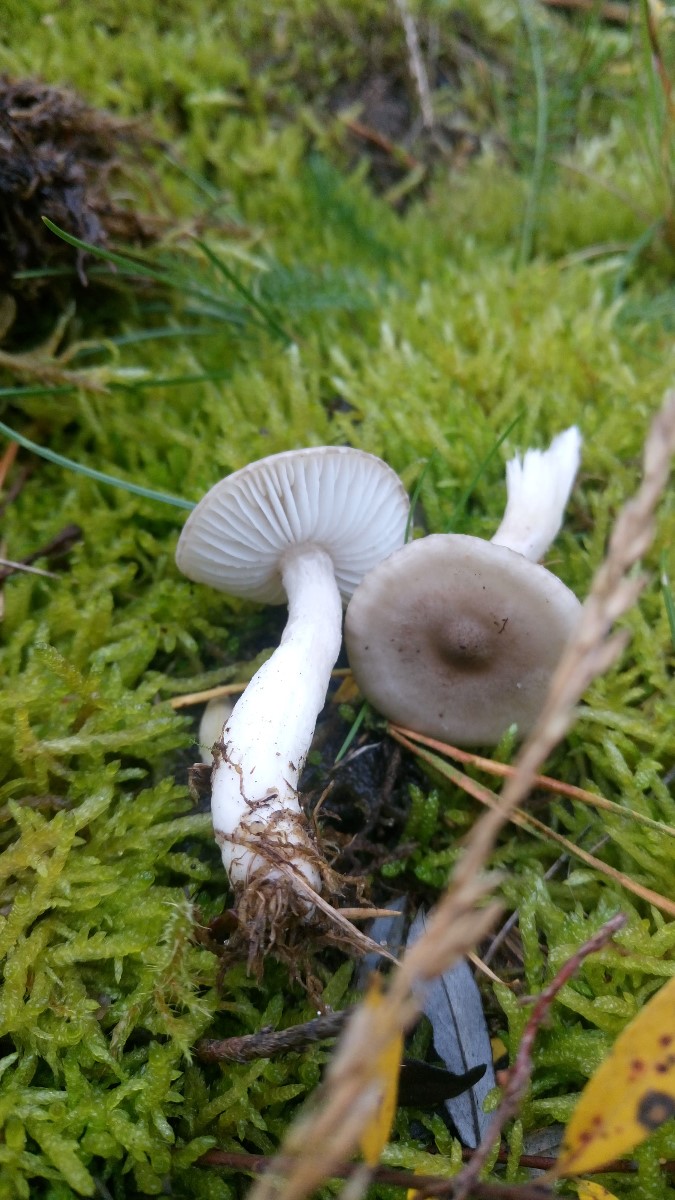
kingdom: Fungi
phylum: Basidiomycota
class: Agaricomycetes
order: Agaricales
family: Hygrophoraceae
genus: Hygrophorus
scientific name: Hygrophorus agathosmus
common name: vellugtende sneglehat
